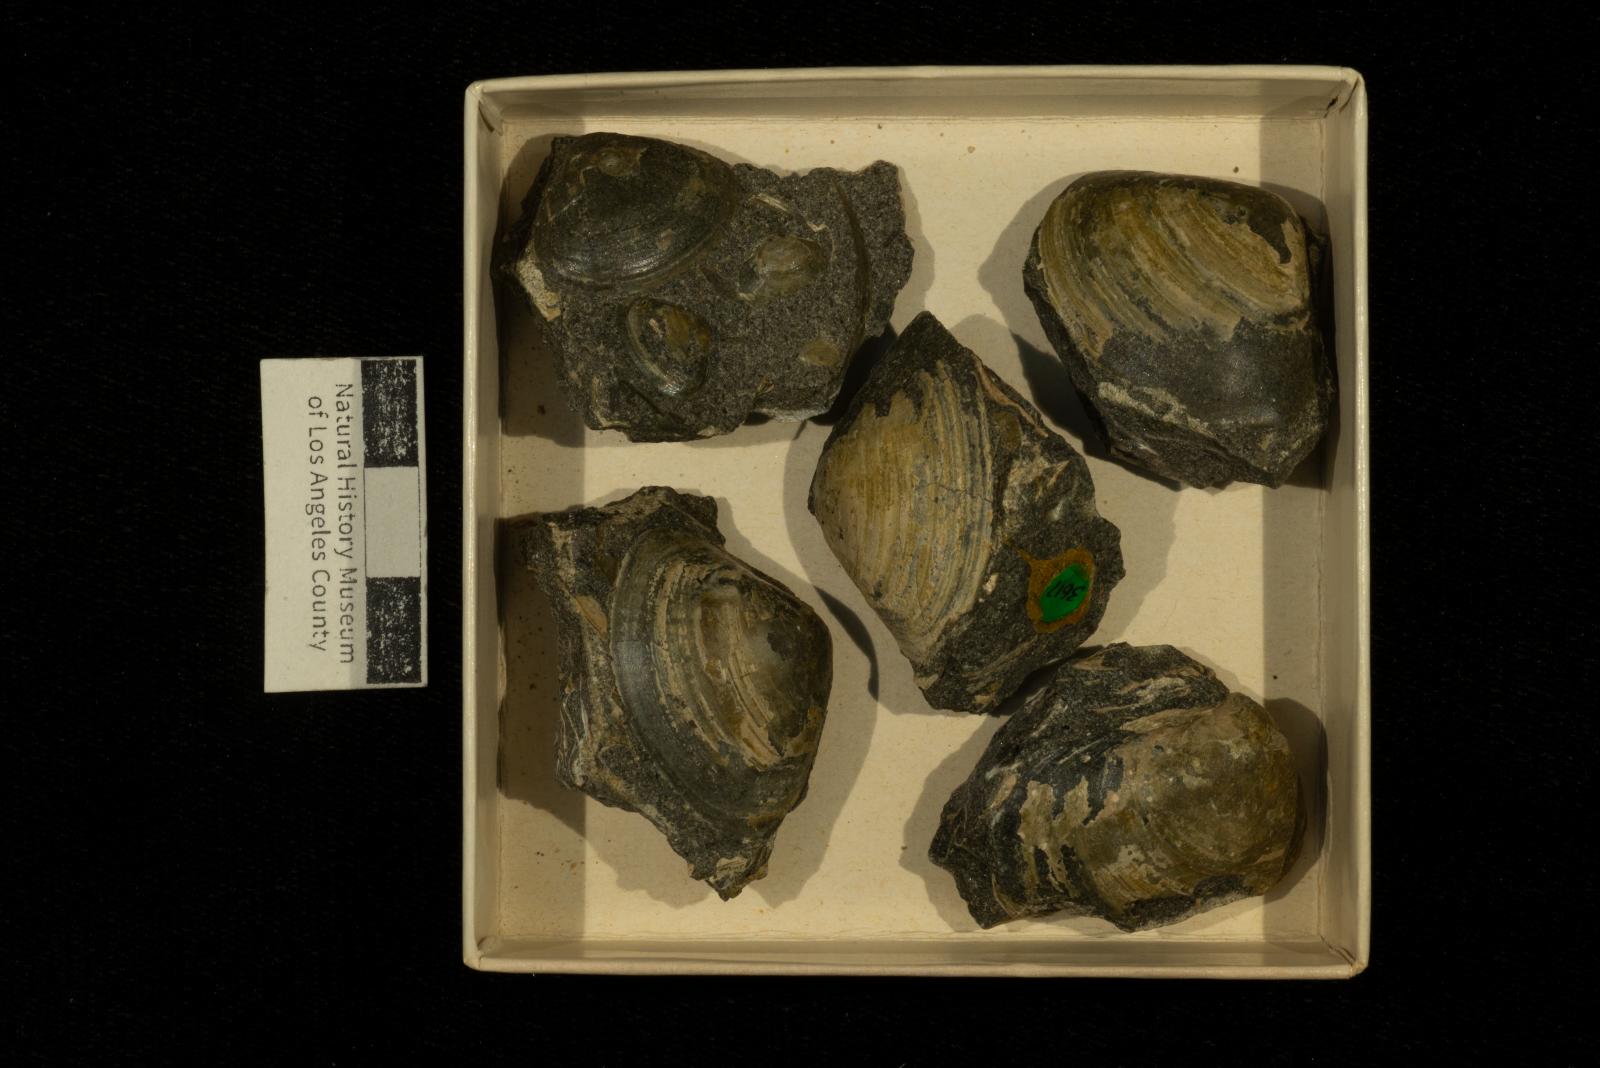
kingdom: Animalia
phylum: Mollusca
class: Bivalvia
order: Venerida
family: Mactridae
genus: Cymbophora
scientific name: Cymbophora Mactra stantoni
